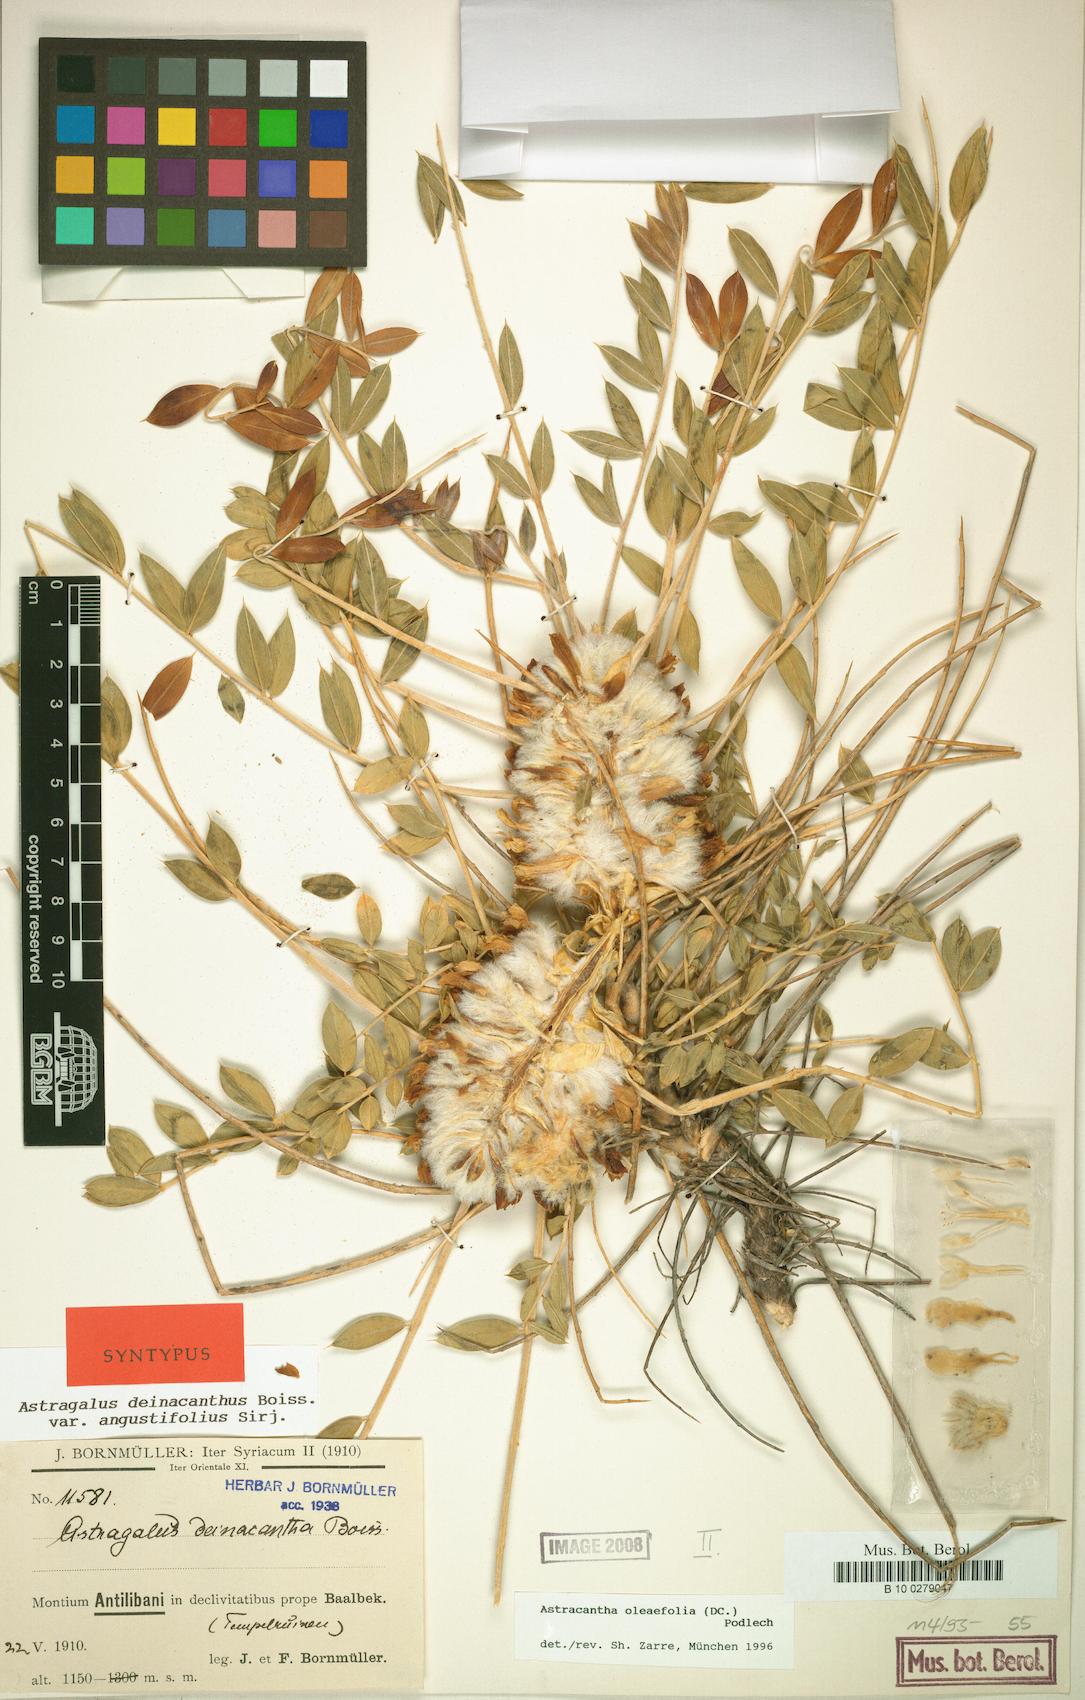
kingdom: Plantae
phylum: Tracheophyta
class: Magnoliopsida
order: Fabales
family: Fabaceae
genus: Astragalus
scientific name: Astragalus oleifolius
